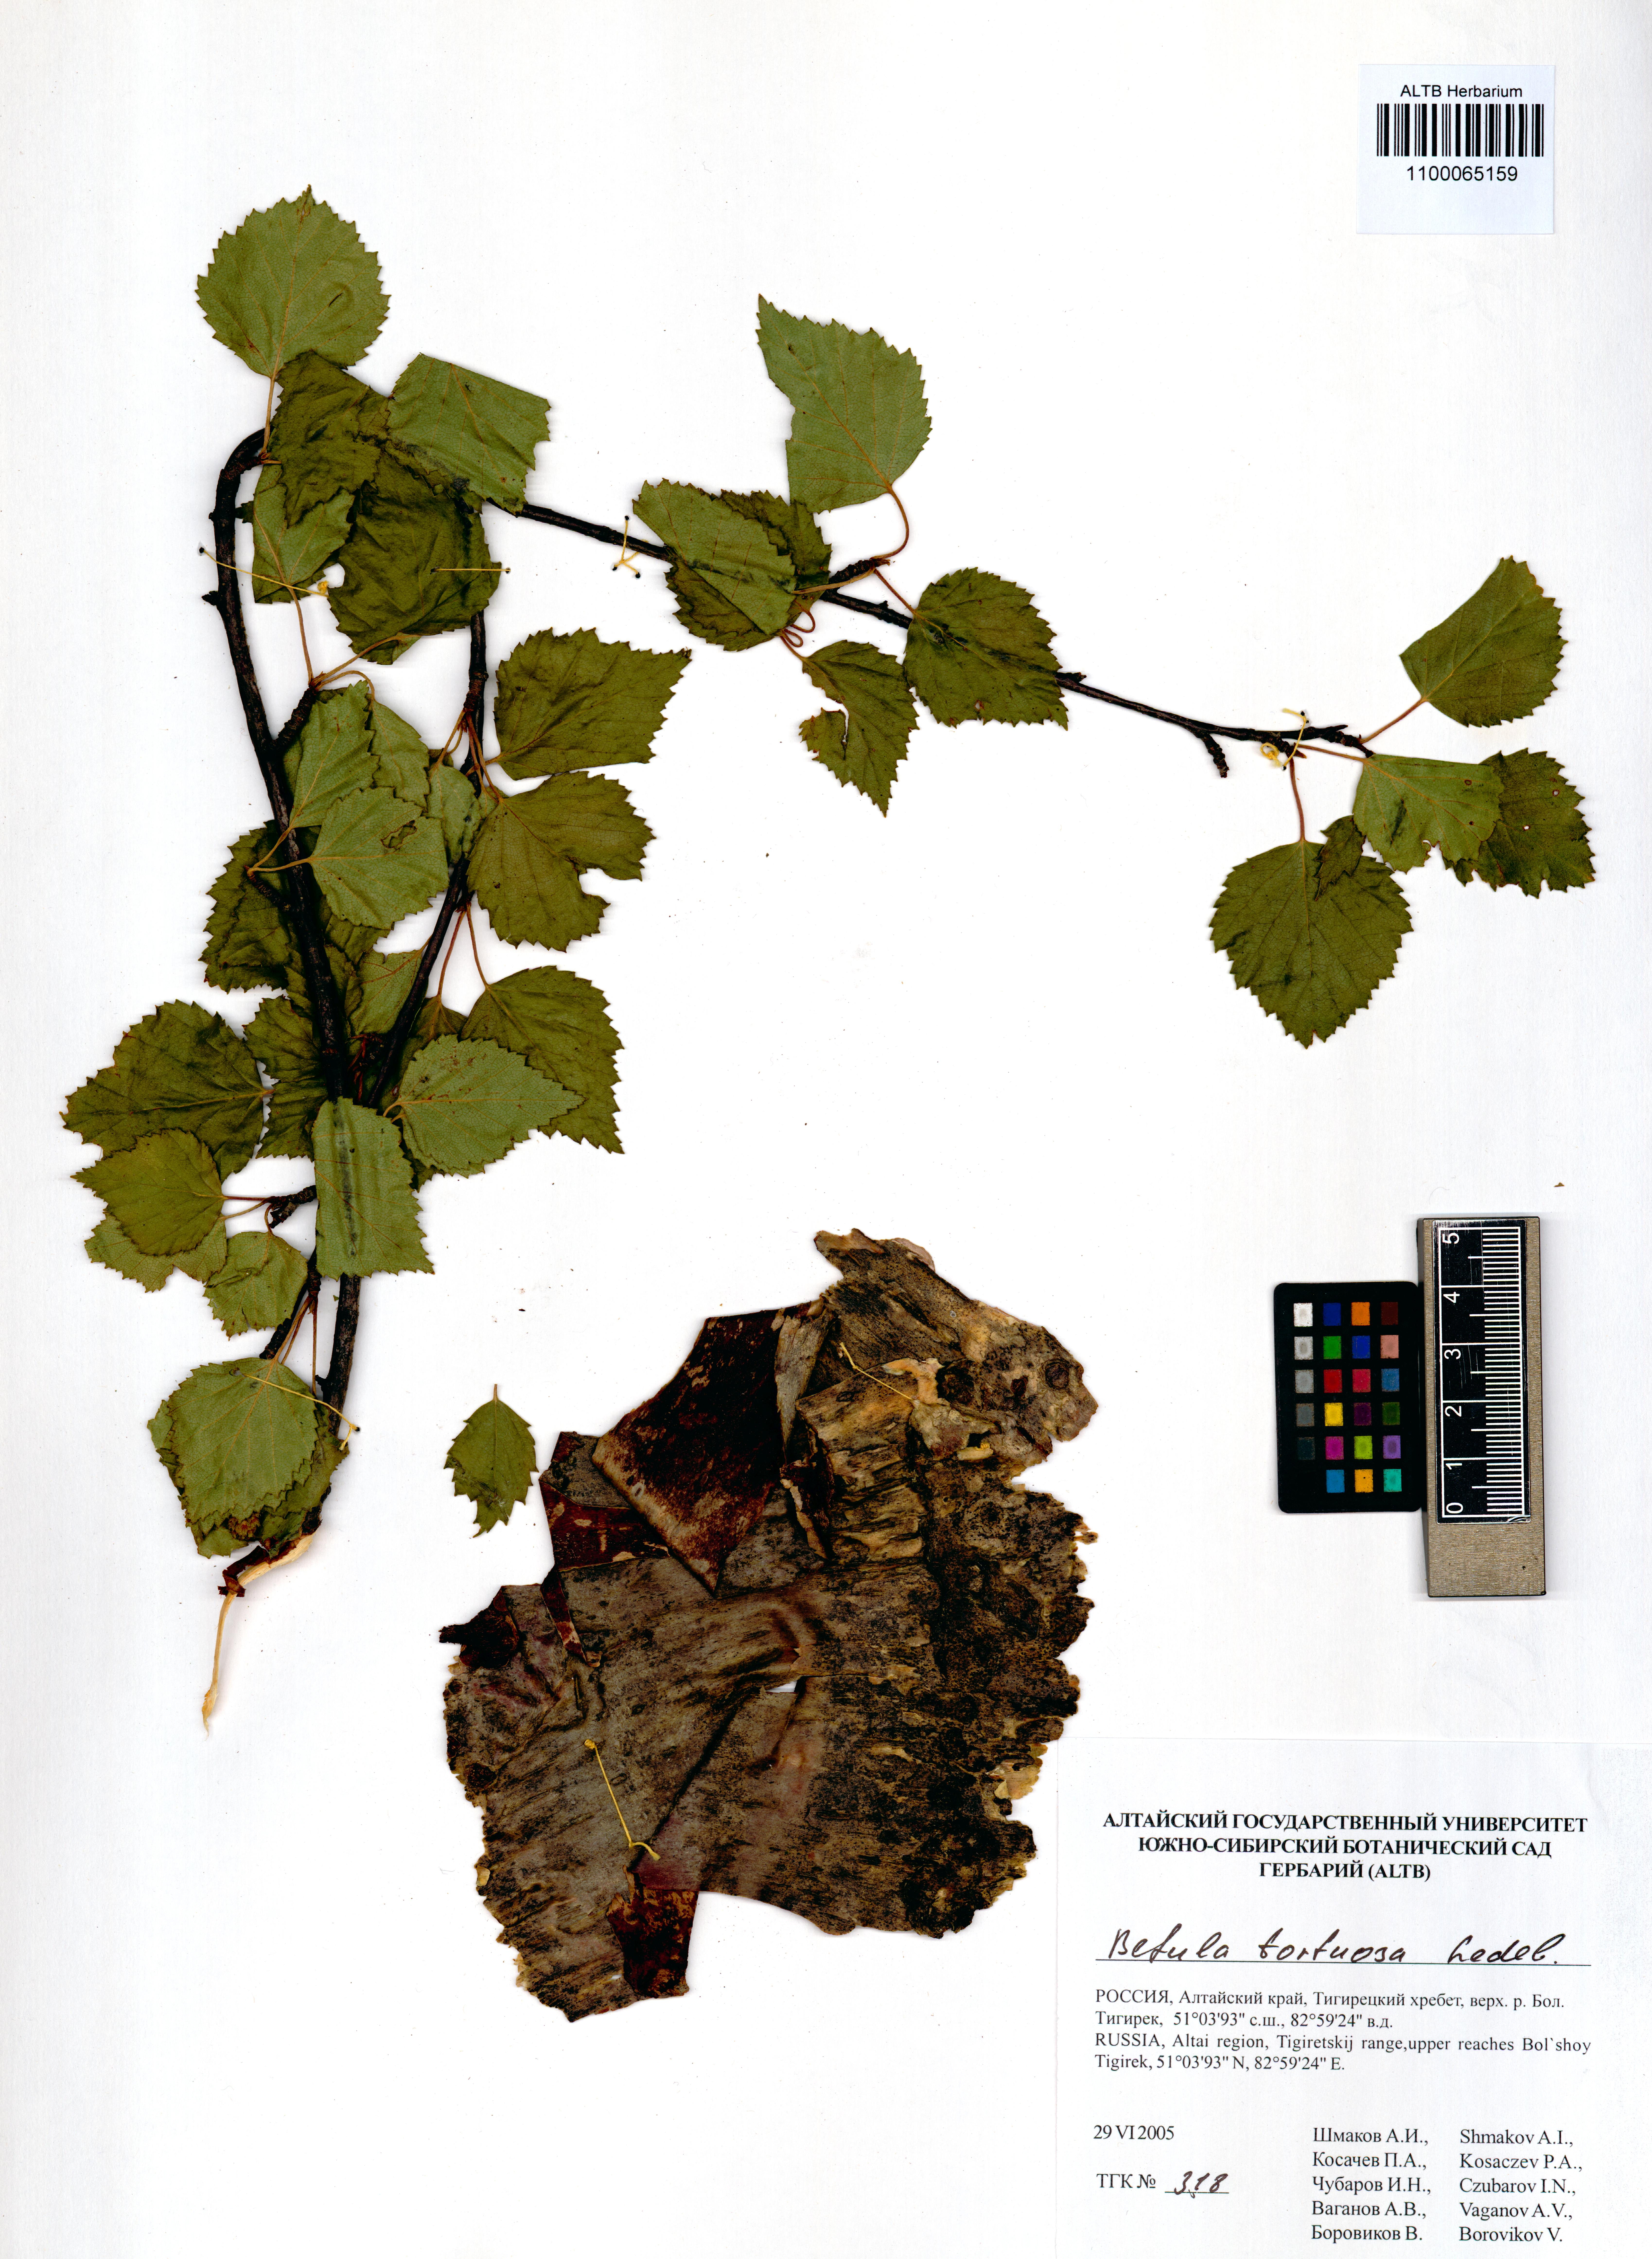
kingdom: Plantae
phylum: Tracheophyta
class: Magnoliopsida
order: Fagales
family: Betulaceae
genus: Betula
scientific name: Betula pubescens
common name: Downy birch
